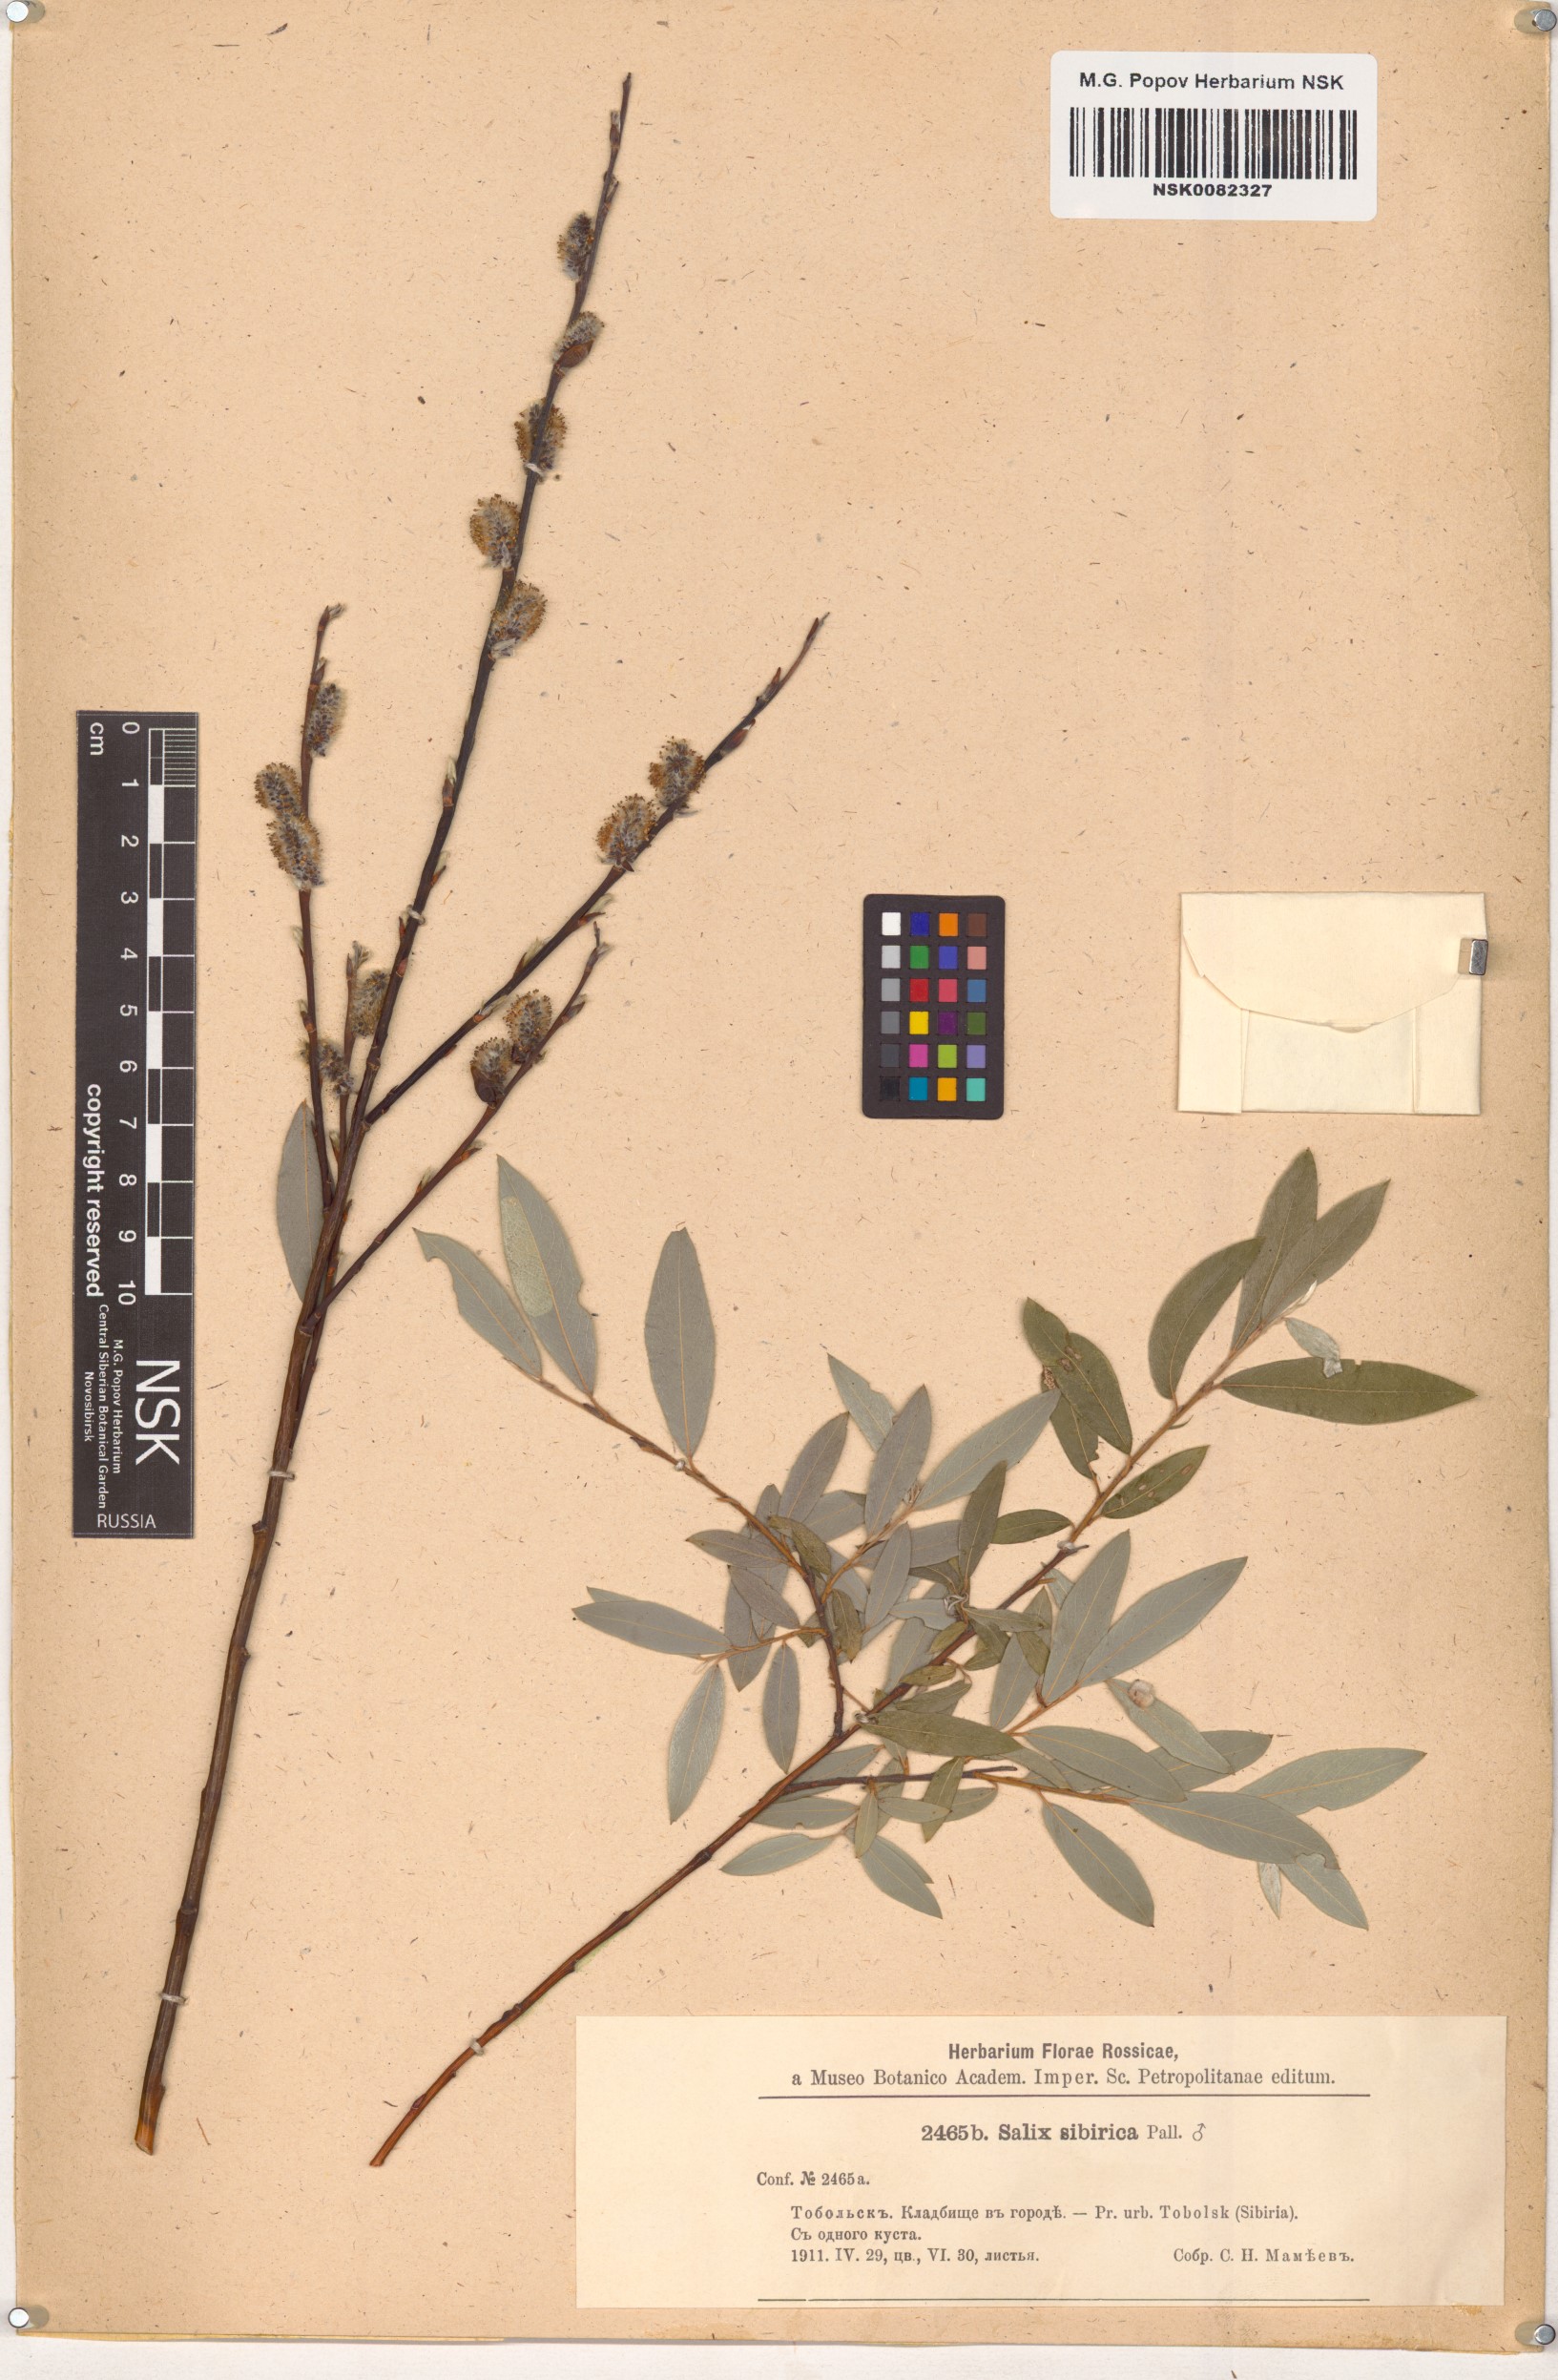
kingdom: Plantae
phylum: Tracheophyta
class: Magnoliopsida
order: Malpighiales
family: Salicaceae
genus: Salix
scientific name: Salix rosmarinifolia
